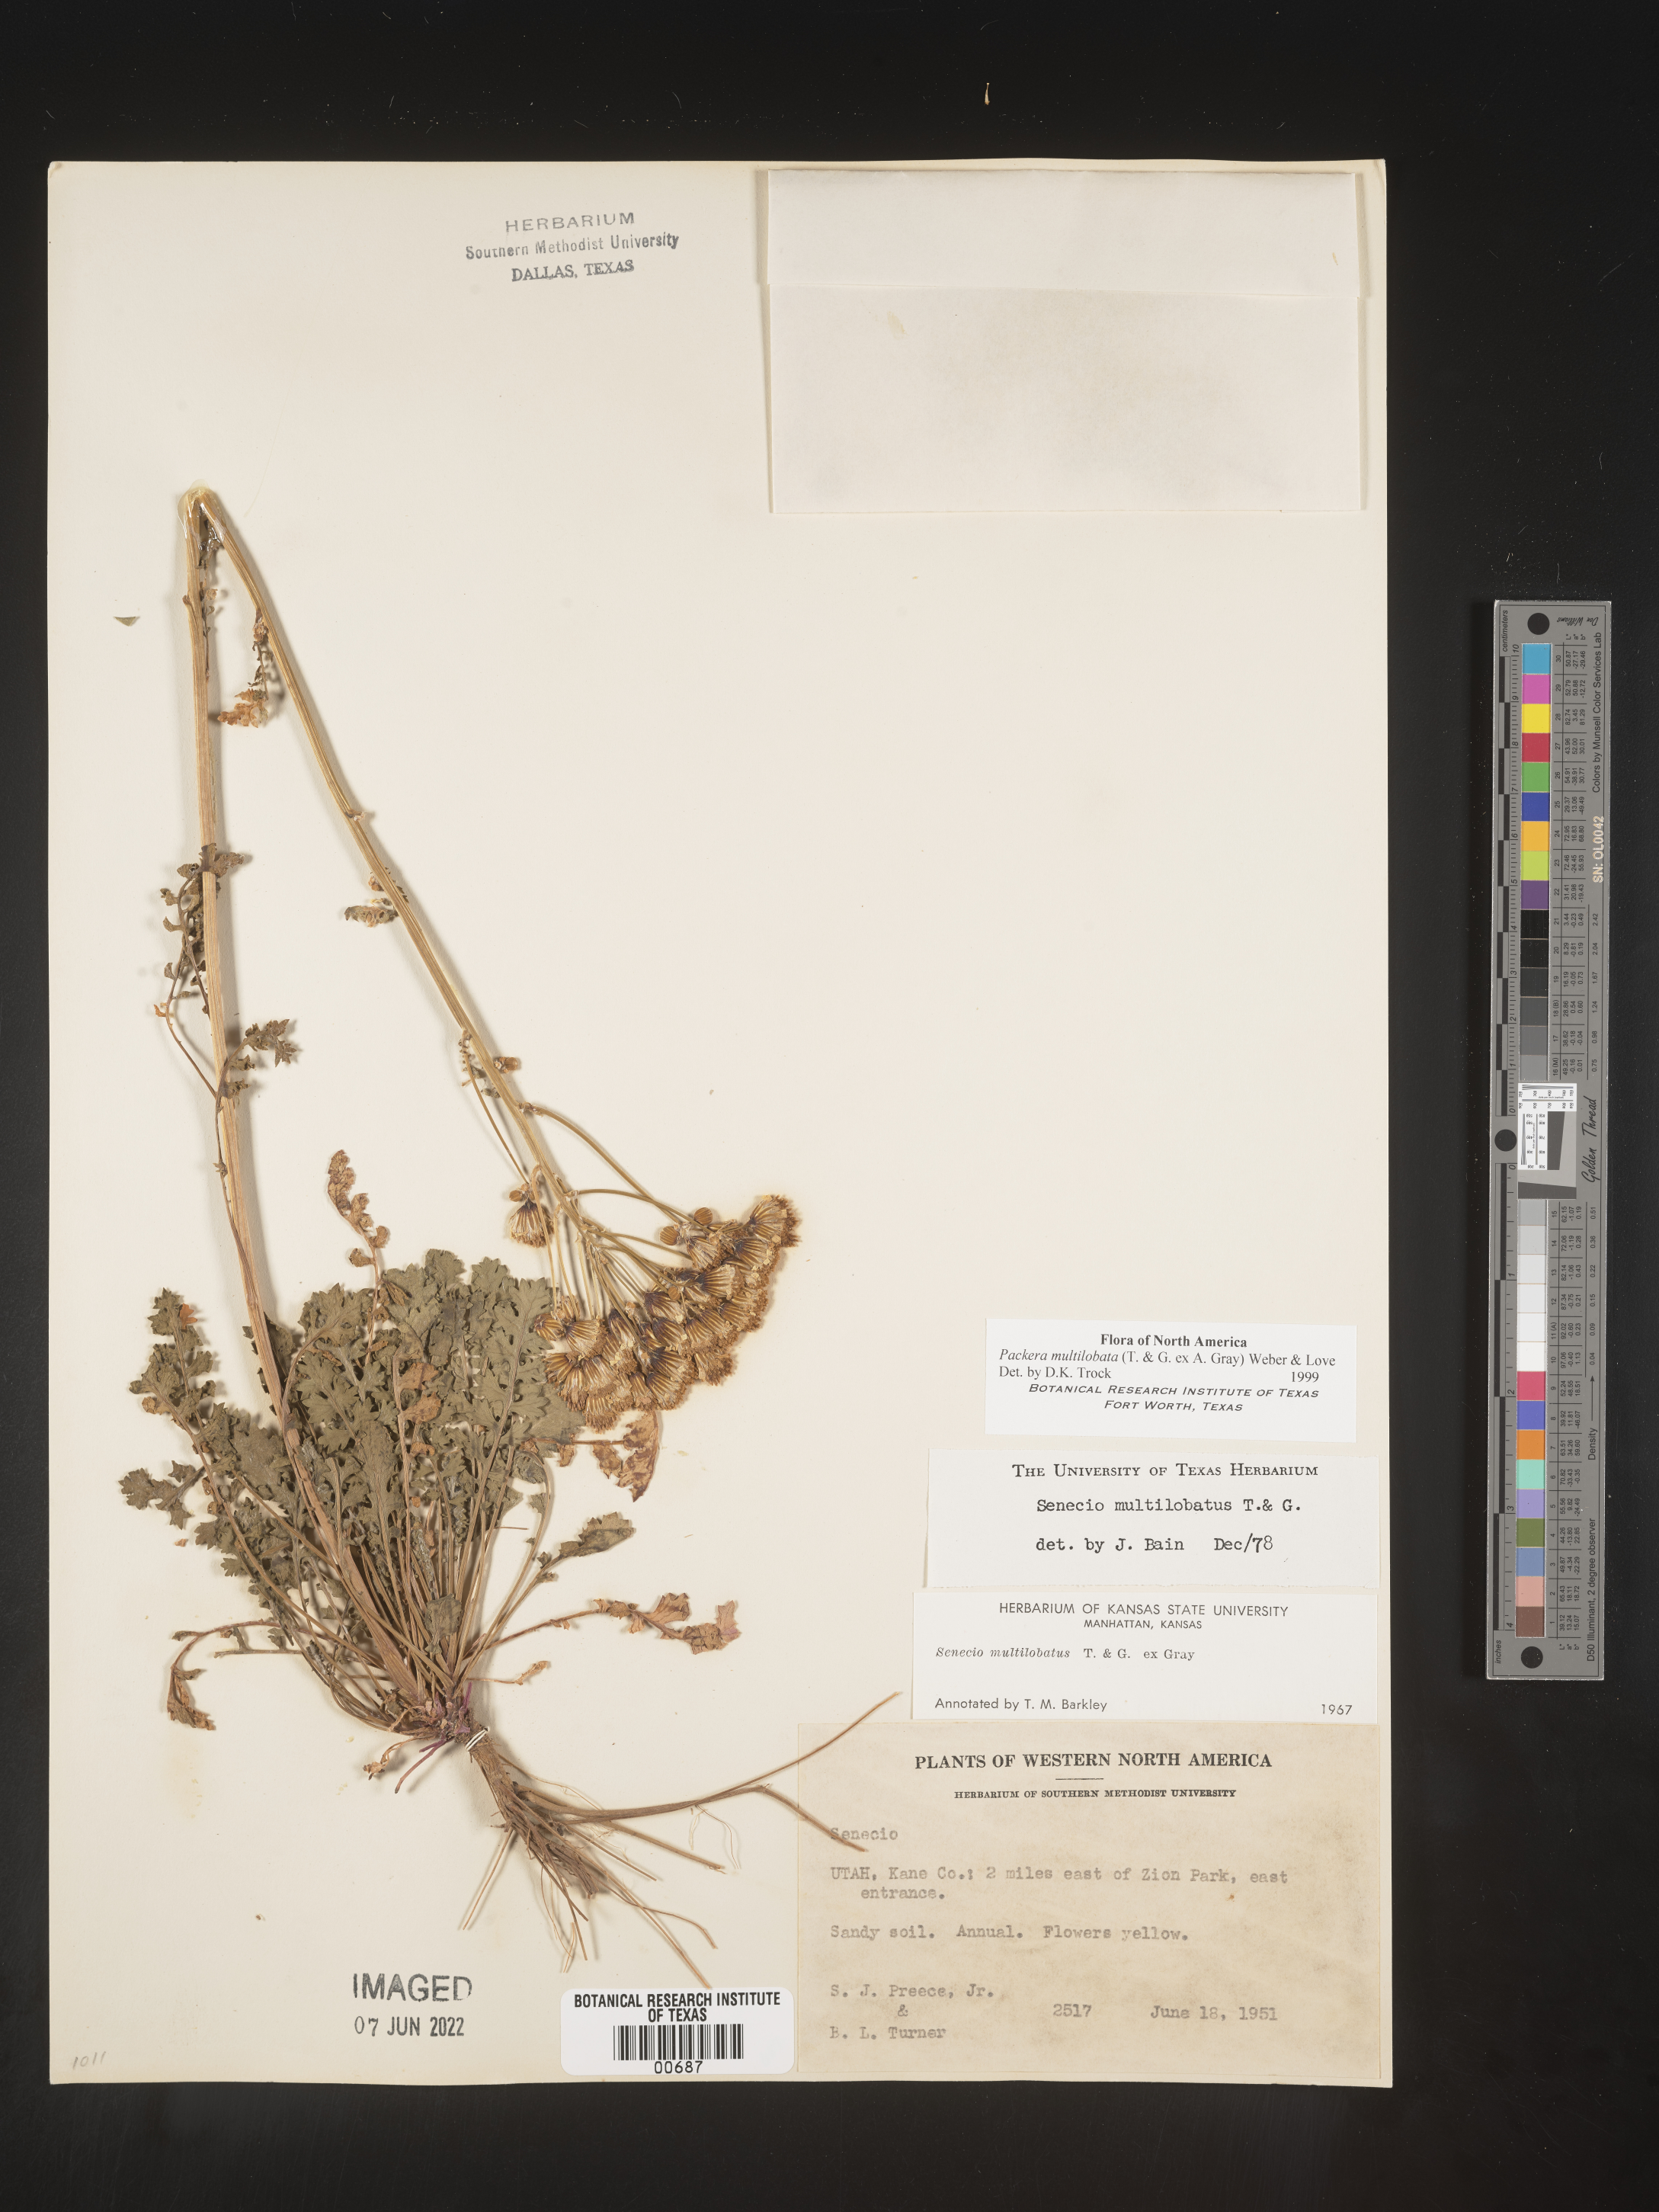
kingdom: Plantae
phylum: Tracheophyta
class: Magnoliopsida
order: Asterales
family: Asteraceae
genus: Packera
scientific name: Packera multilobata
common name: Lobe-leaf groundsel
